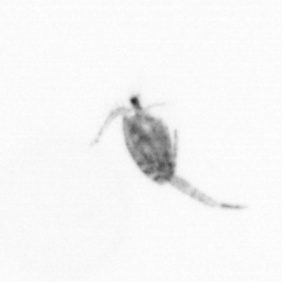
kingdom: Animalia
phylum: Arthropoda
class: Copepoda
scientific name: Copepoda
